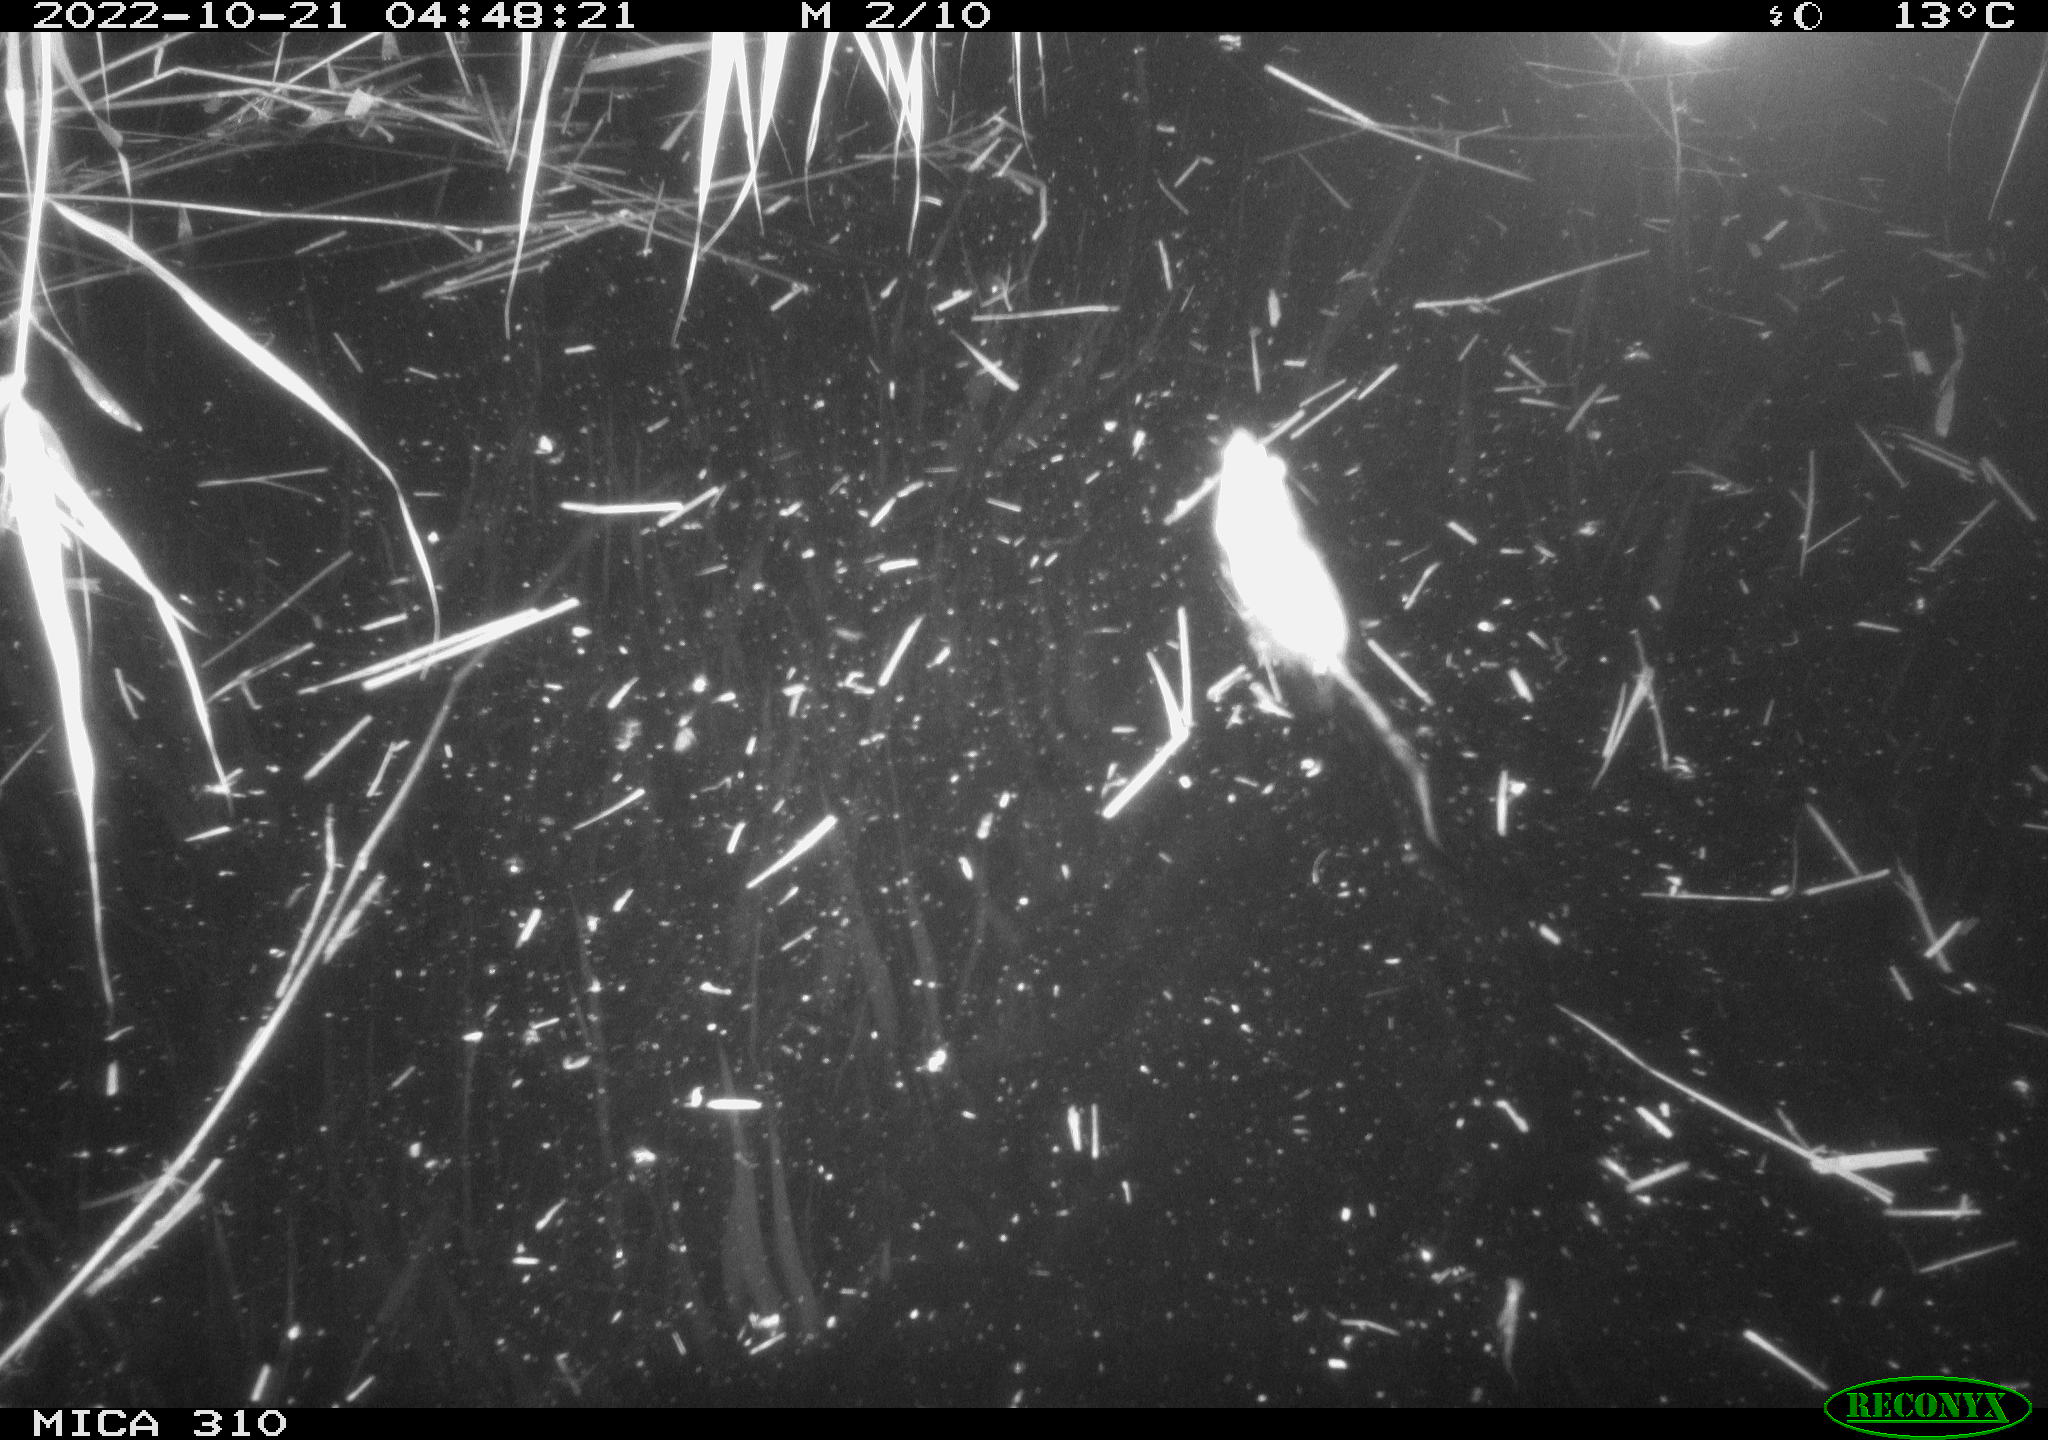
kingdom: Animalia
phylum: Chordata
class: Mammalia
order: Rodentia
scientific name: Rodentia
